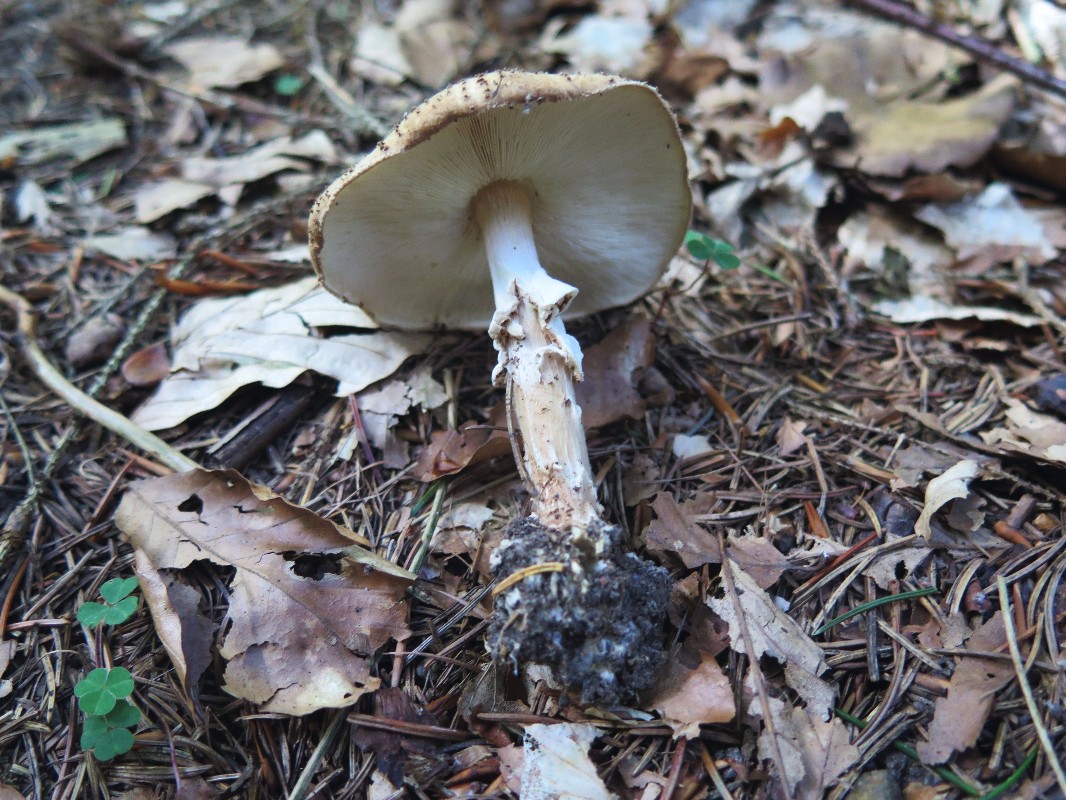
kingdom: Fungi
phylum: Basidiomycota
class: Agaricomycetes
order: Agaricales
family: Agaricaceae
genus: Echinoderma
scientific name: Echinoderma asperum
